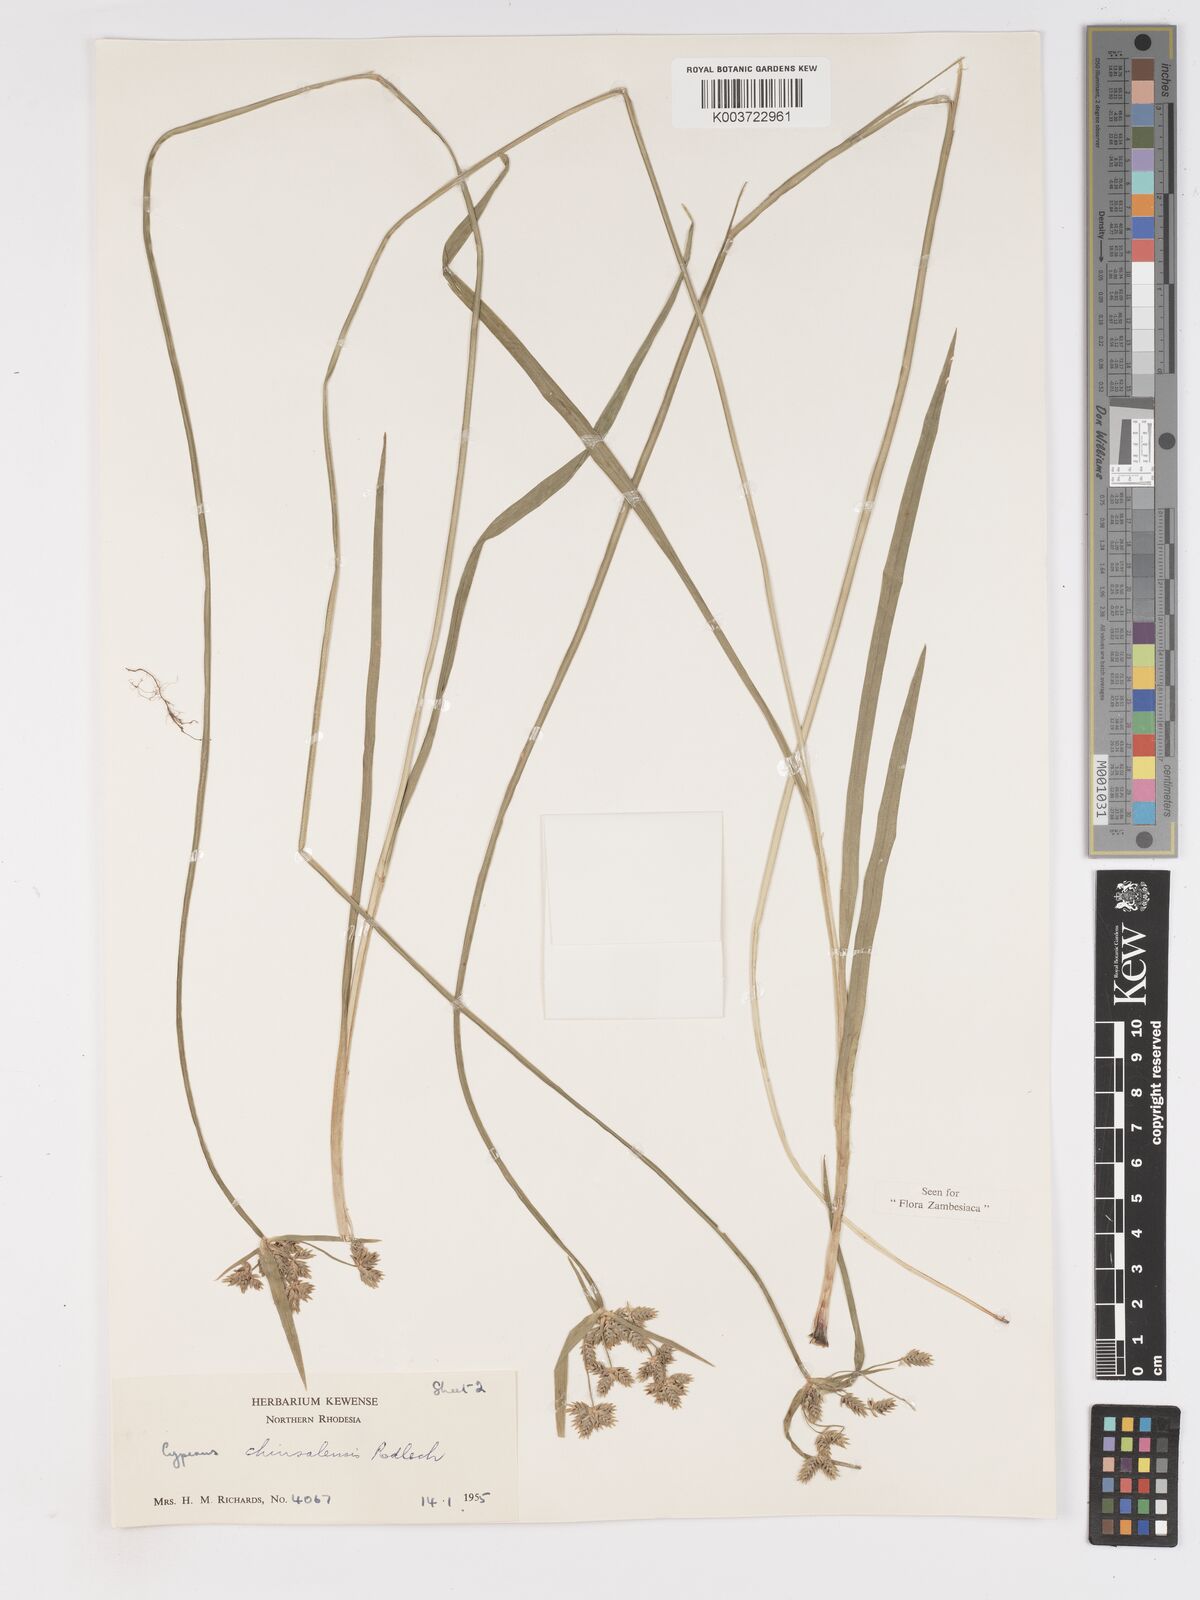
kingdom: Plantae
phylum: Tracheophyta
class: Liliopsida
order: Poales
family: Cyperaceae
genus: Cyperus
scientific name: Cyperus chinsalensis
